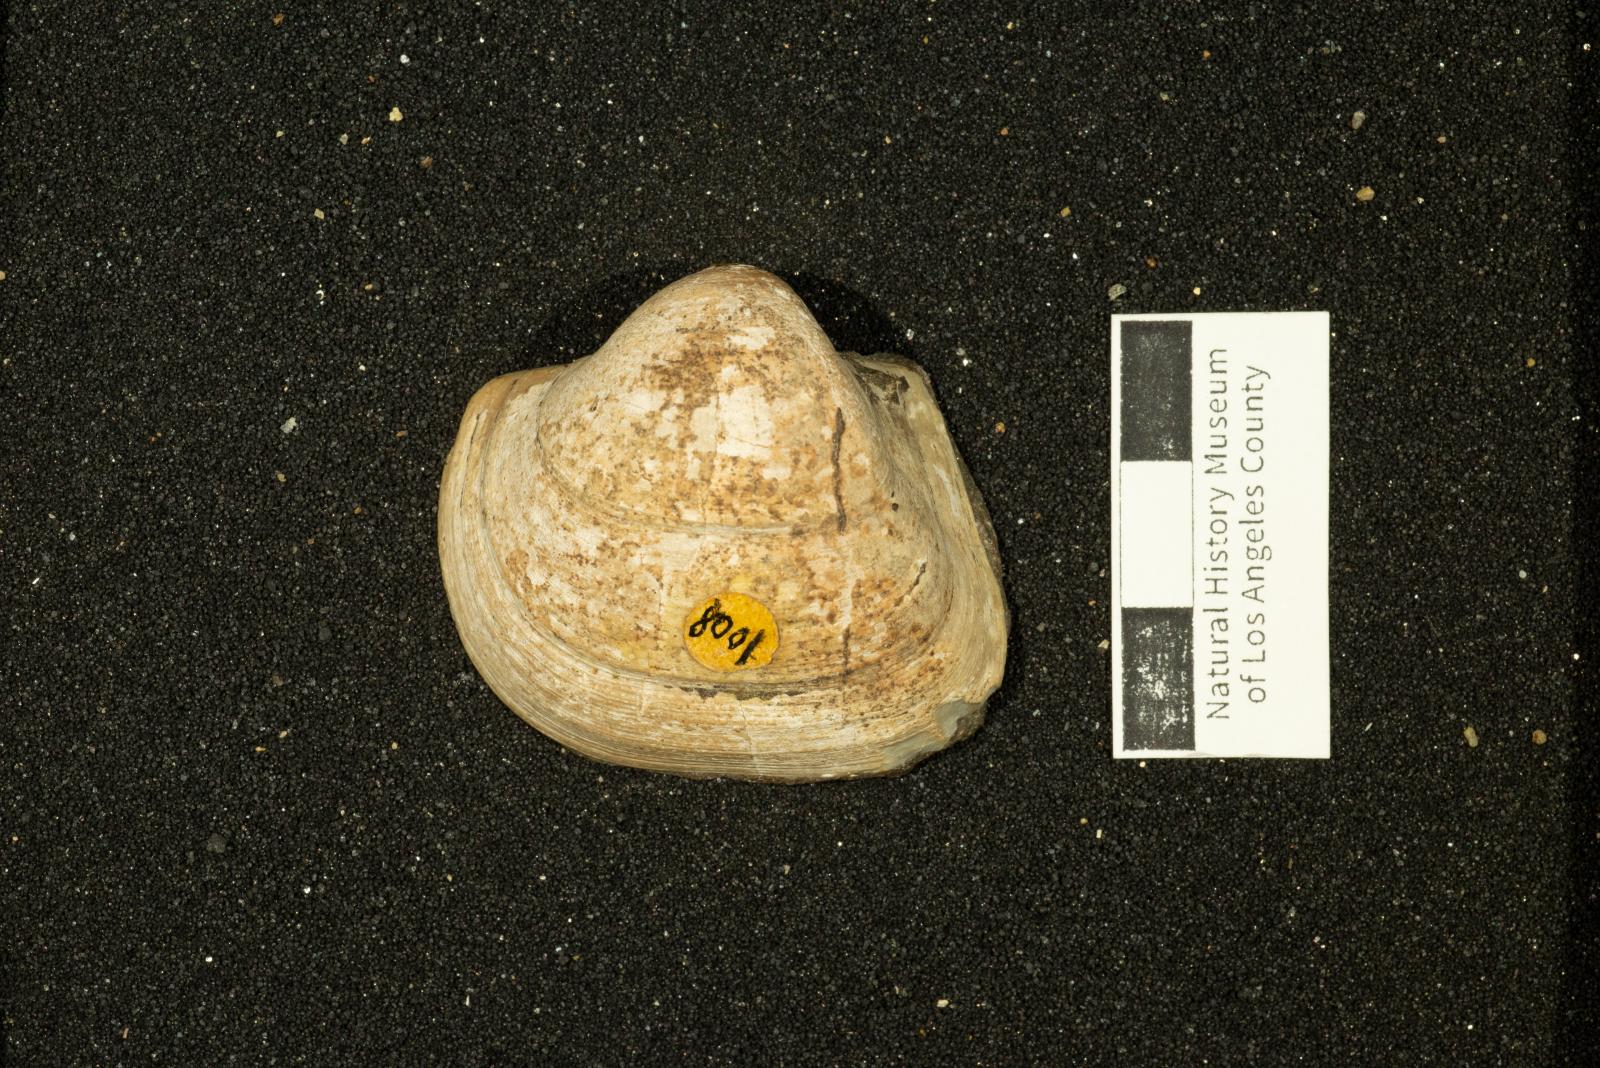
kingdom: Animalia
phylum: Mollusca
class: Bivalvia
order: Arcida
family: Cucullaeidae
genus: Idonearca
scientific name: Idonearca Cucullaea youngi
